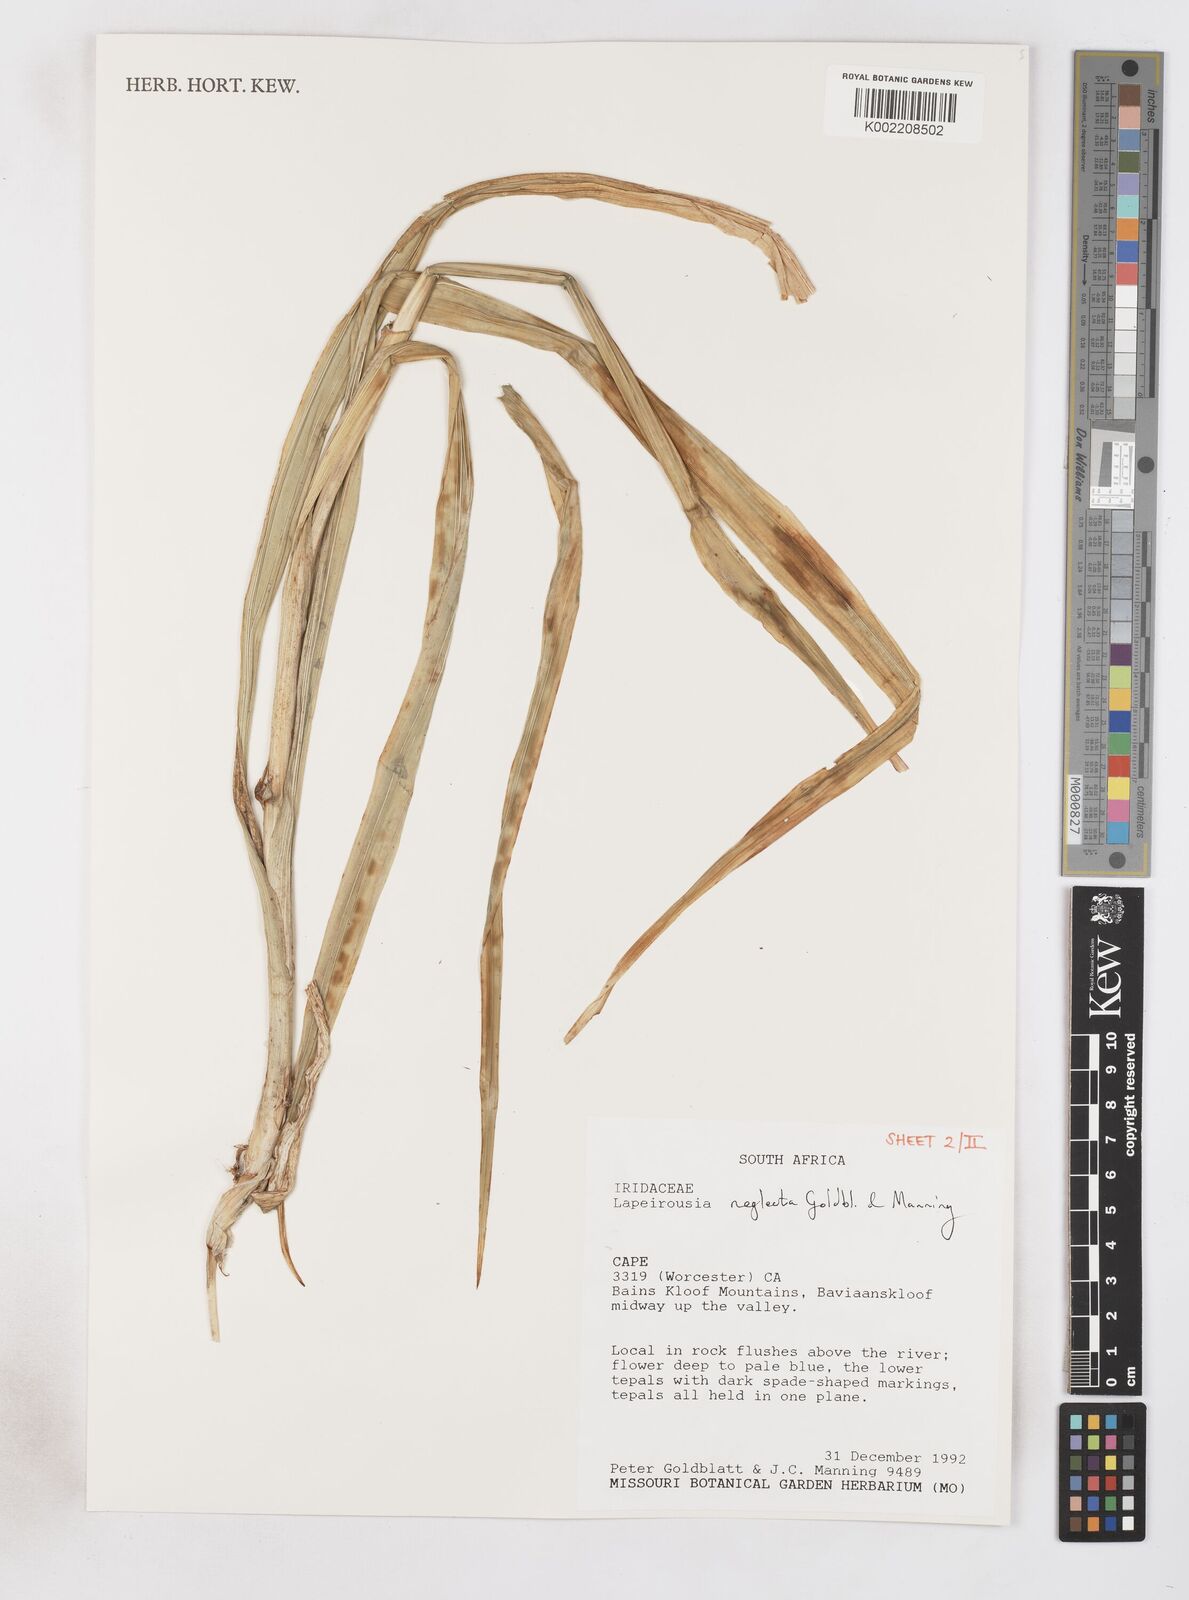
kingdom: Plantae
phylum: Tracheophyta
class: Liliopsida
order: Asparagales
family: Iridaceae
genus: Schizorhiza
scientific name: Schizorhiza neglecta
